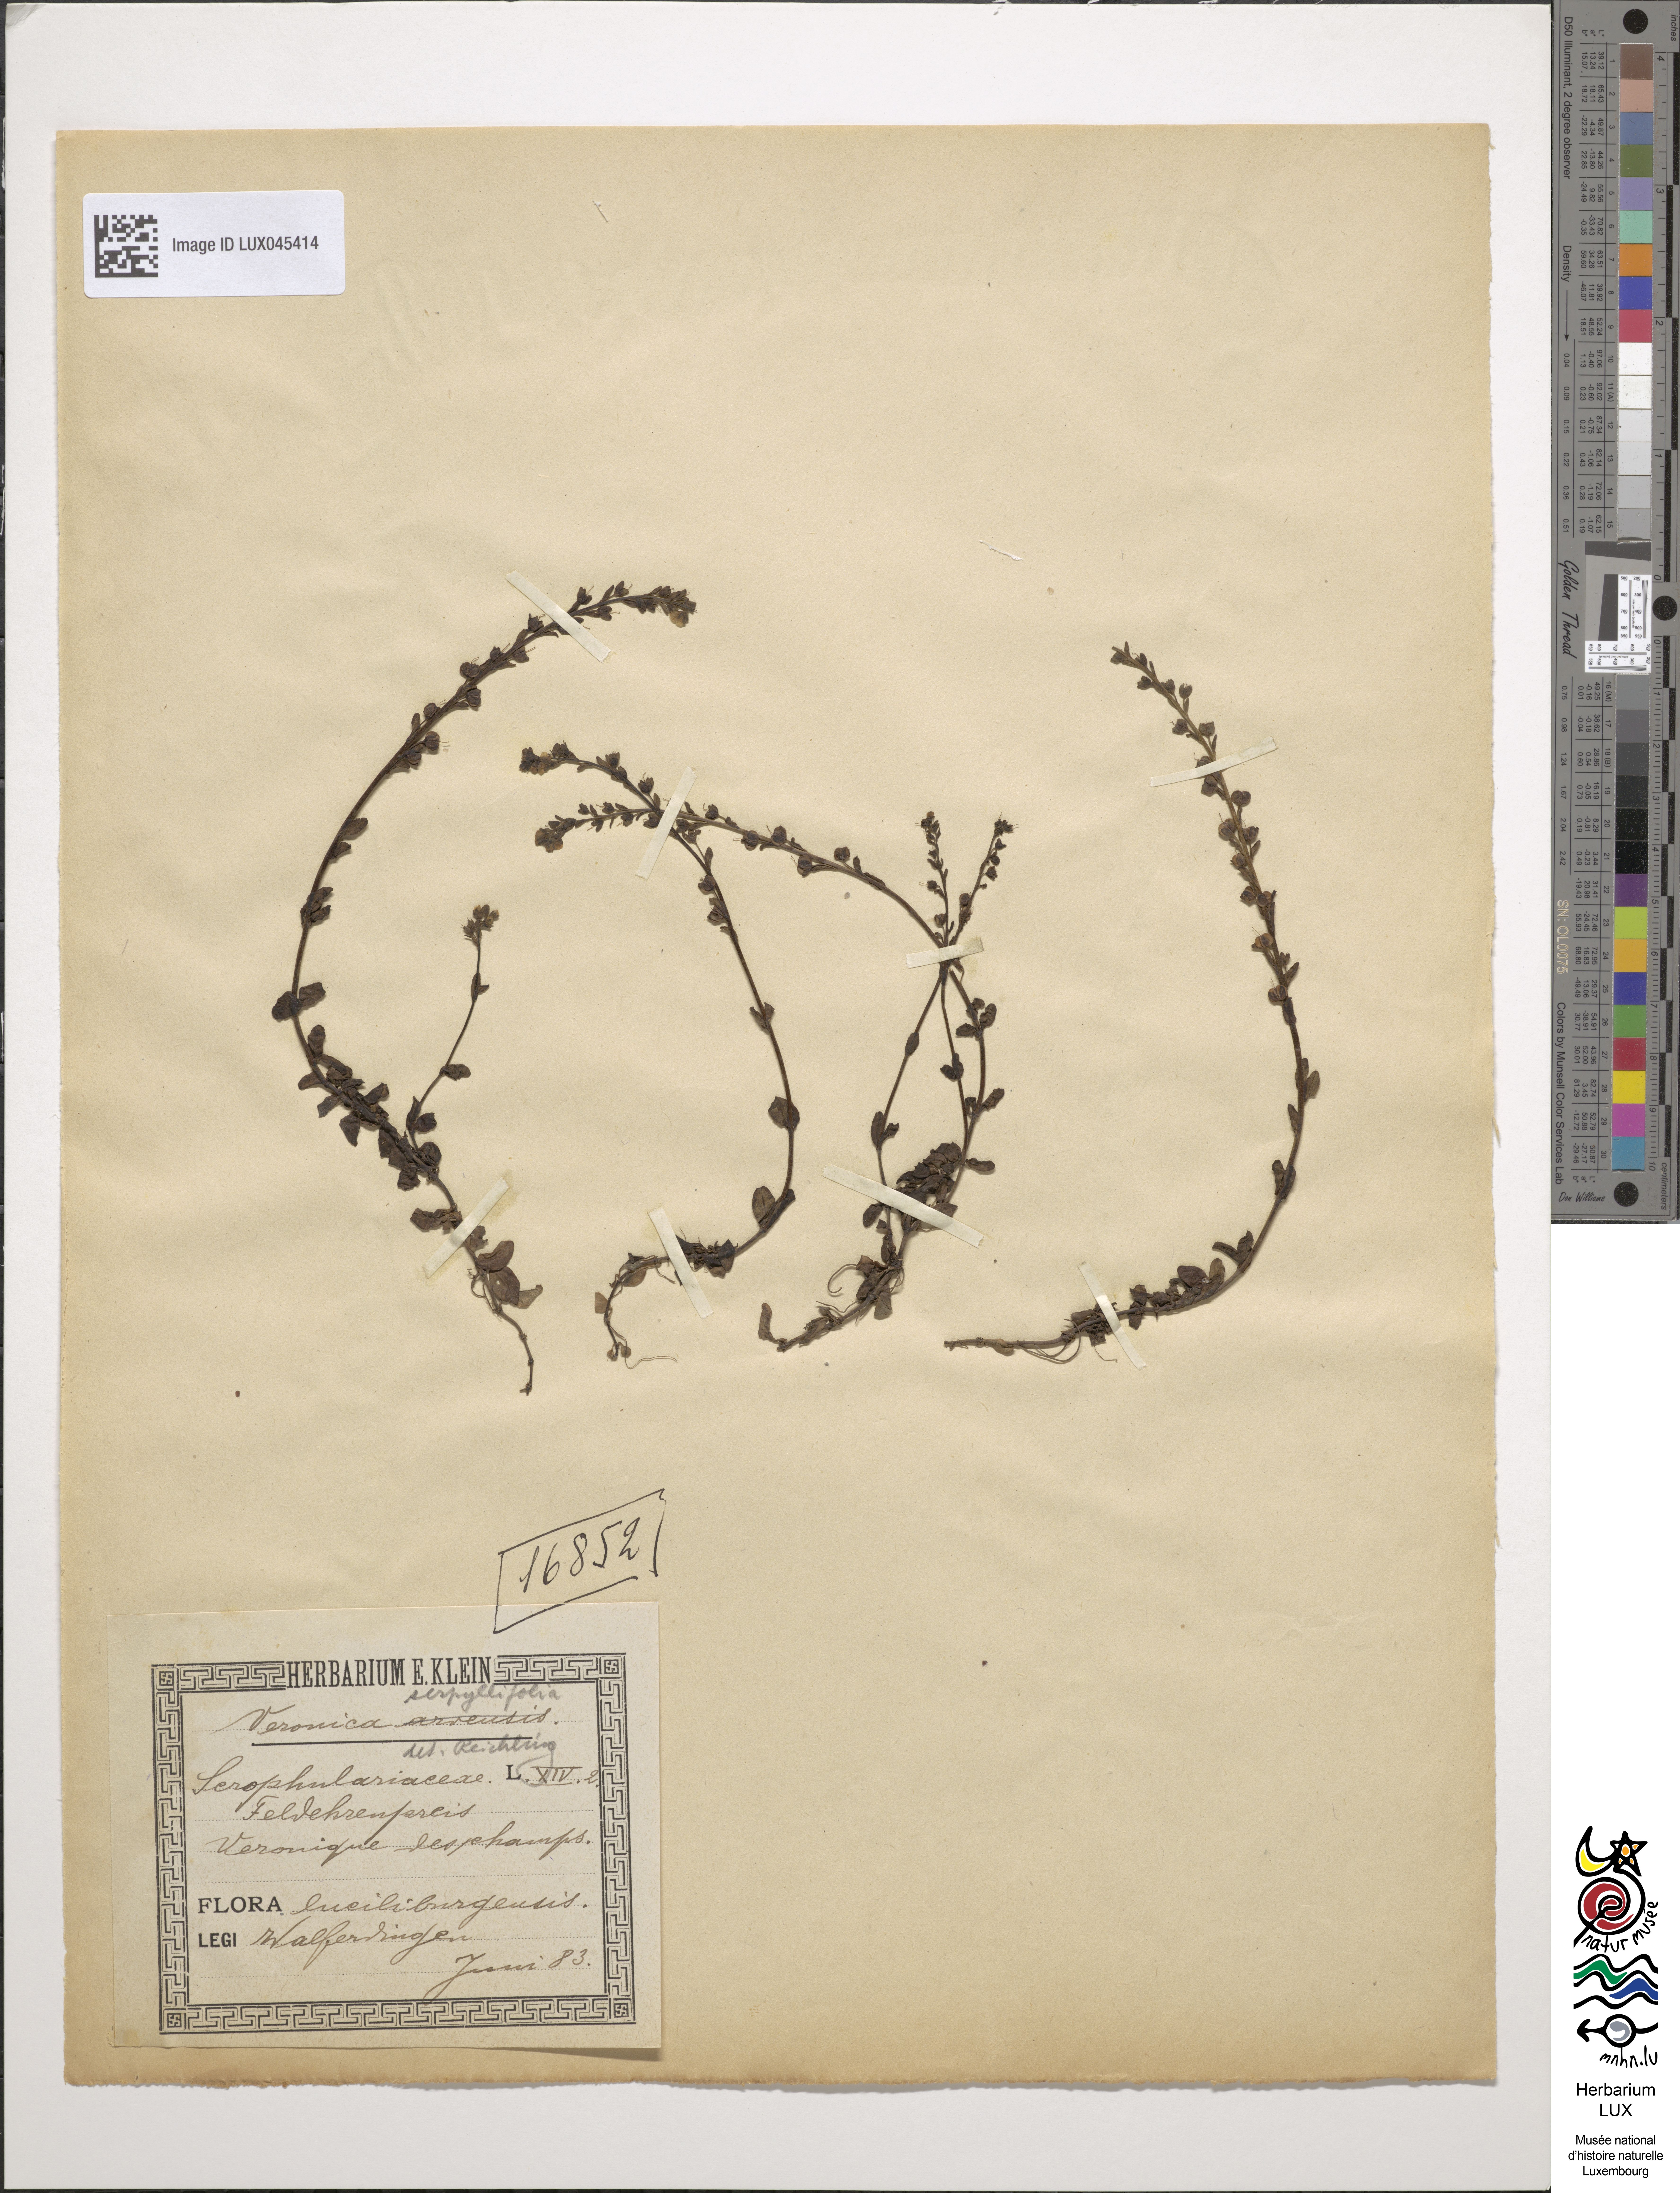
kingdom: Plantae
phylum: Tracheophyta
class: Magnoliopsida
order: Lamiales
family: Plantaginaceae
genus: Veronica
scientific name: Veronica arvensis
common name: Corn speedwell
